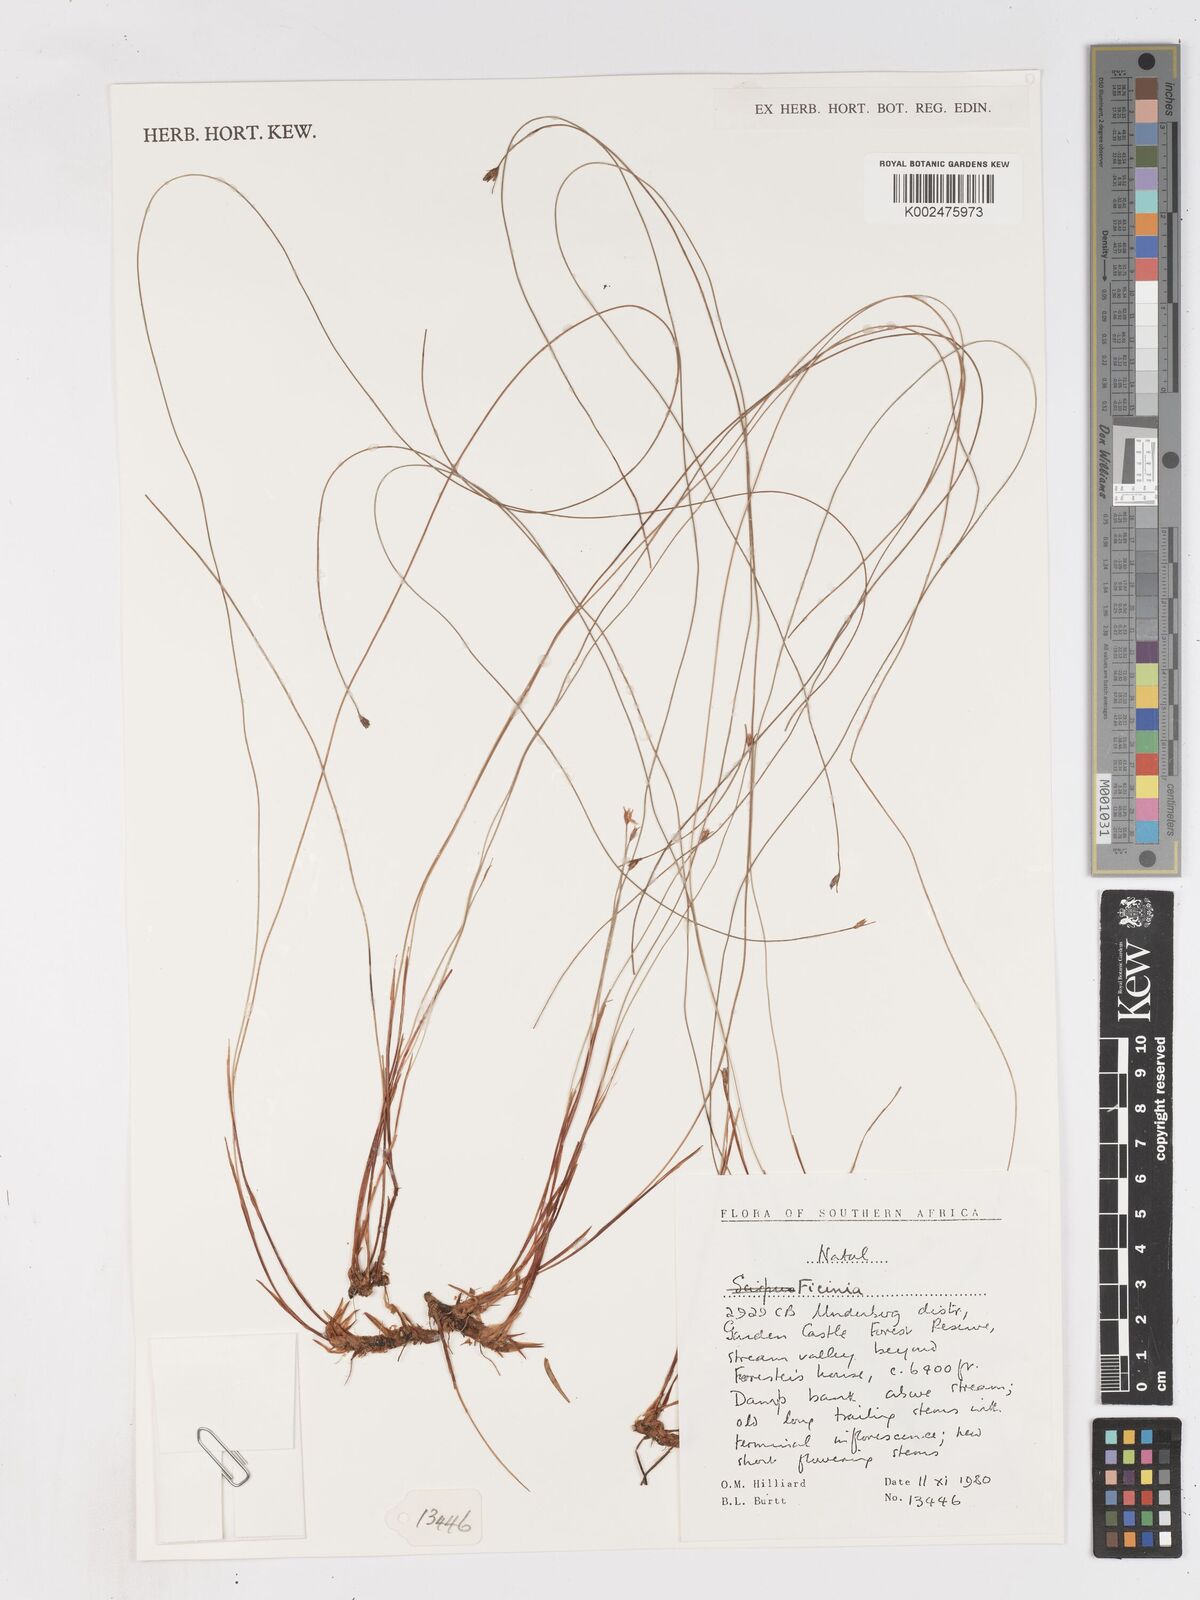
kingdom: Plantae
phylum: Tracheophyta
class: Liliopsida
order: Poales
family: Cyperaceae
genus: Ficinia
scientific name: Ficinia filiculmea
